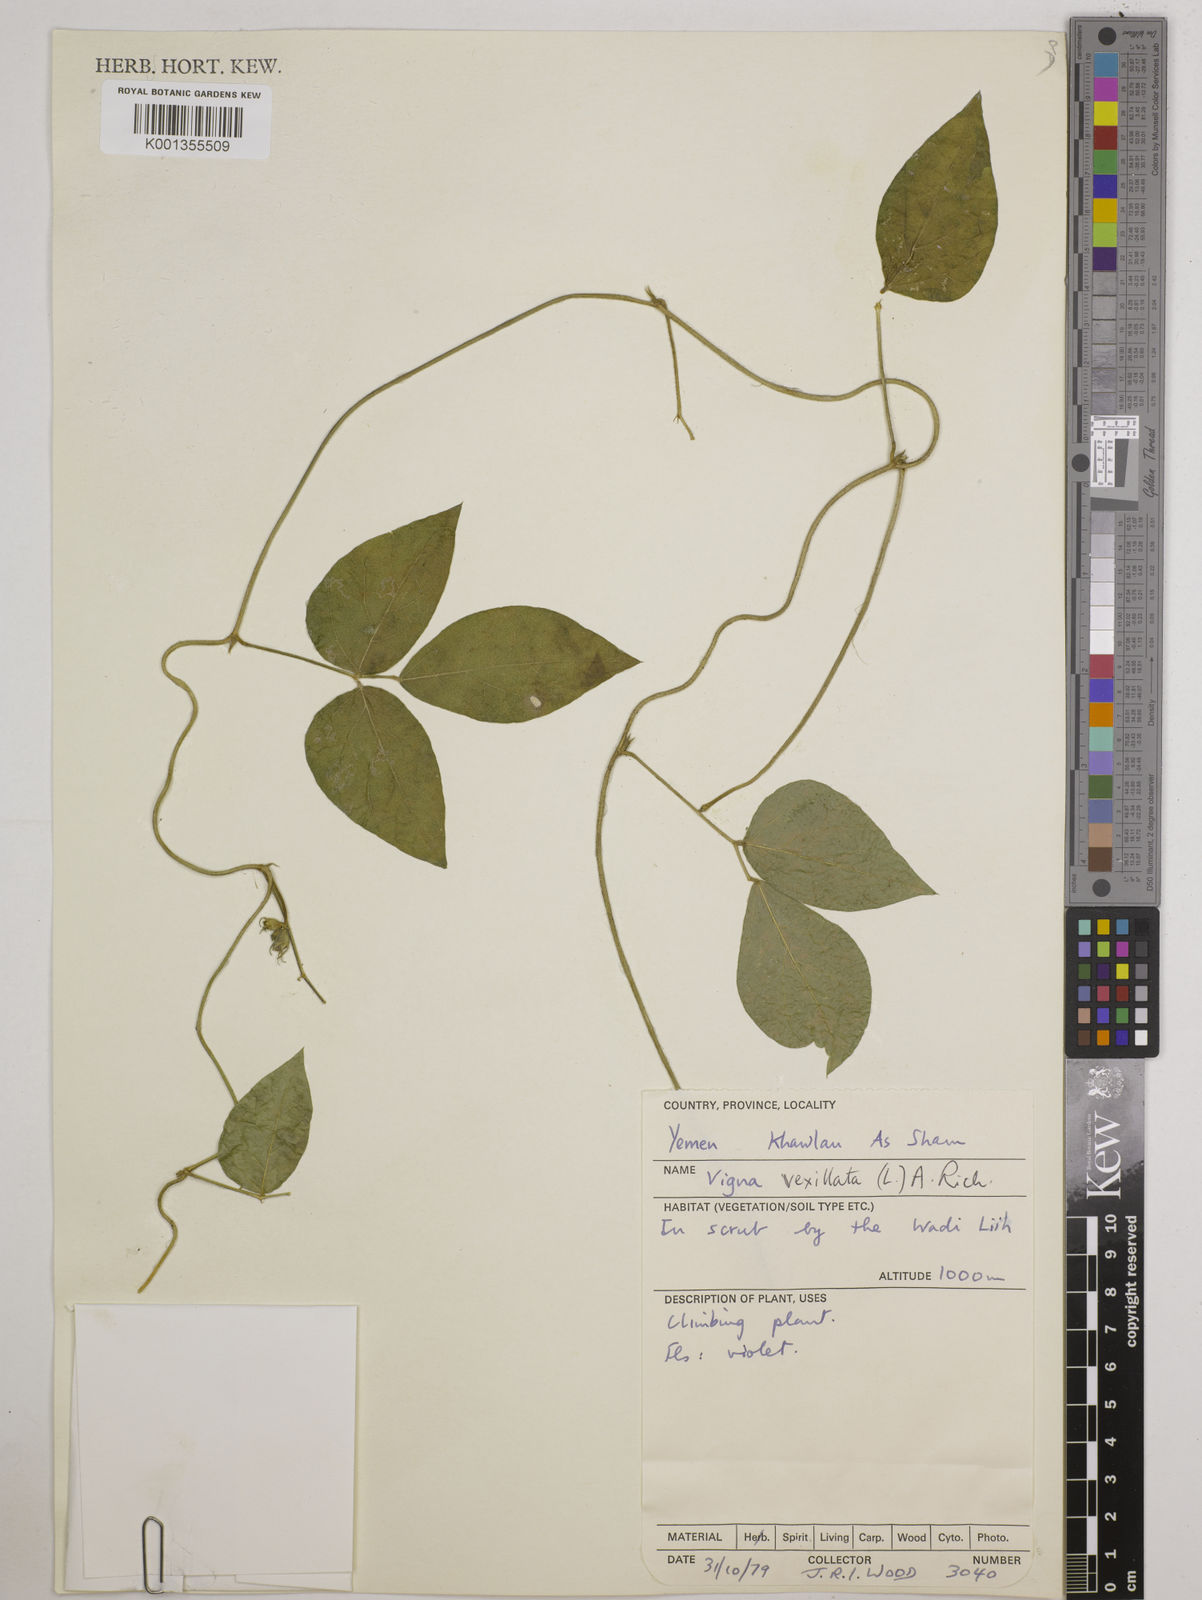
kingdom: Plantae
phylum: Tracheophyta
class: Magnoliopsida
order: Fabales
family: Fabaceae
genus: Vigna
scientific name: Vigna vexillata
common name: Zombi pea
